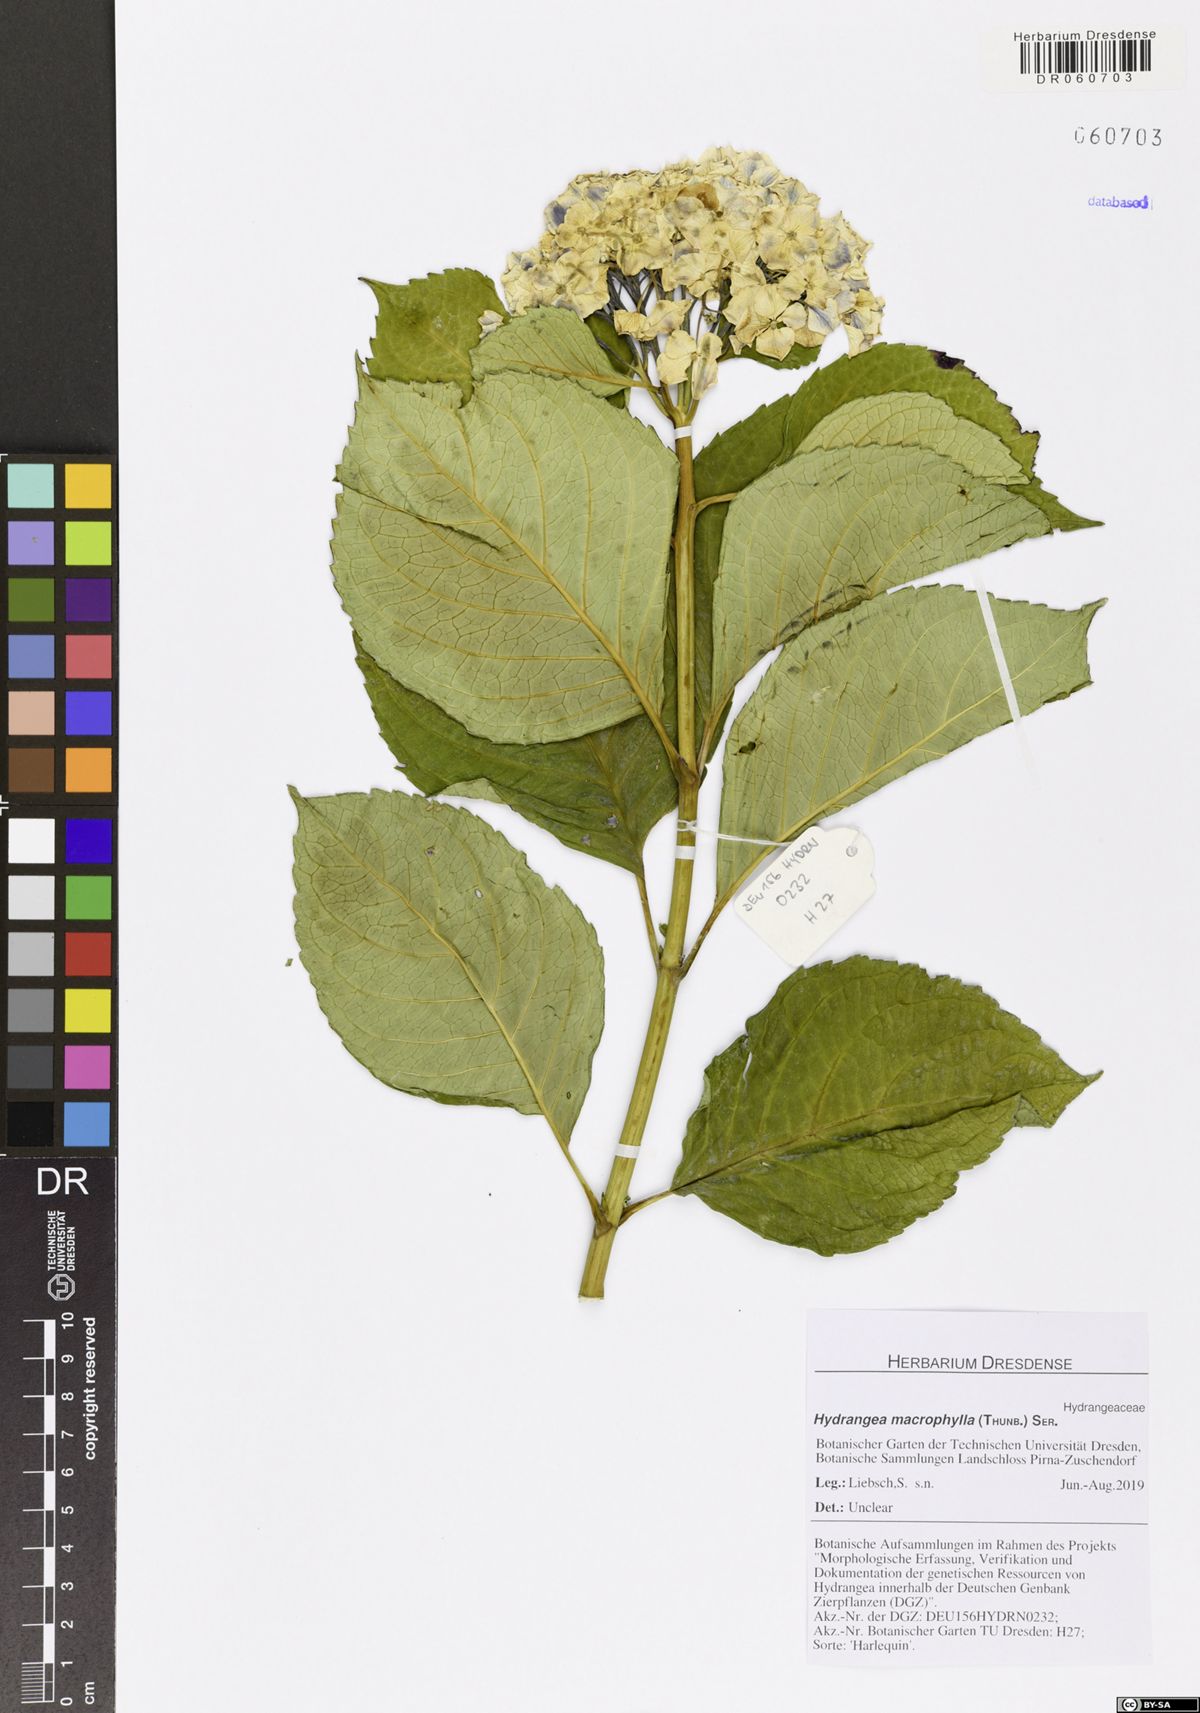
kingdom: Plantae
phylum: Tracheophyta
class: Magnoliopsida
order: Cornales
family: Hydrangeaceae
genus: Hydrangea
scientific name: Hydrangea macrophylla
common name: Hydrangea
